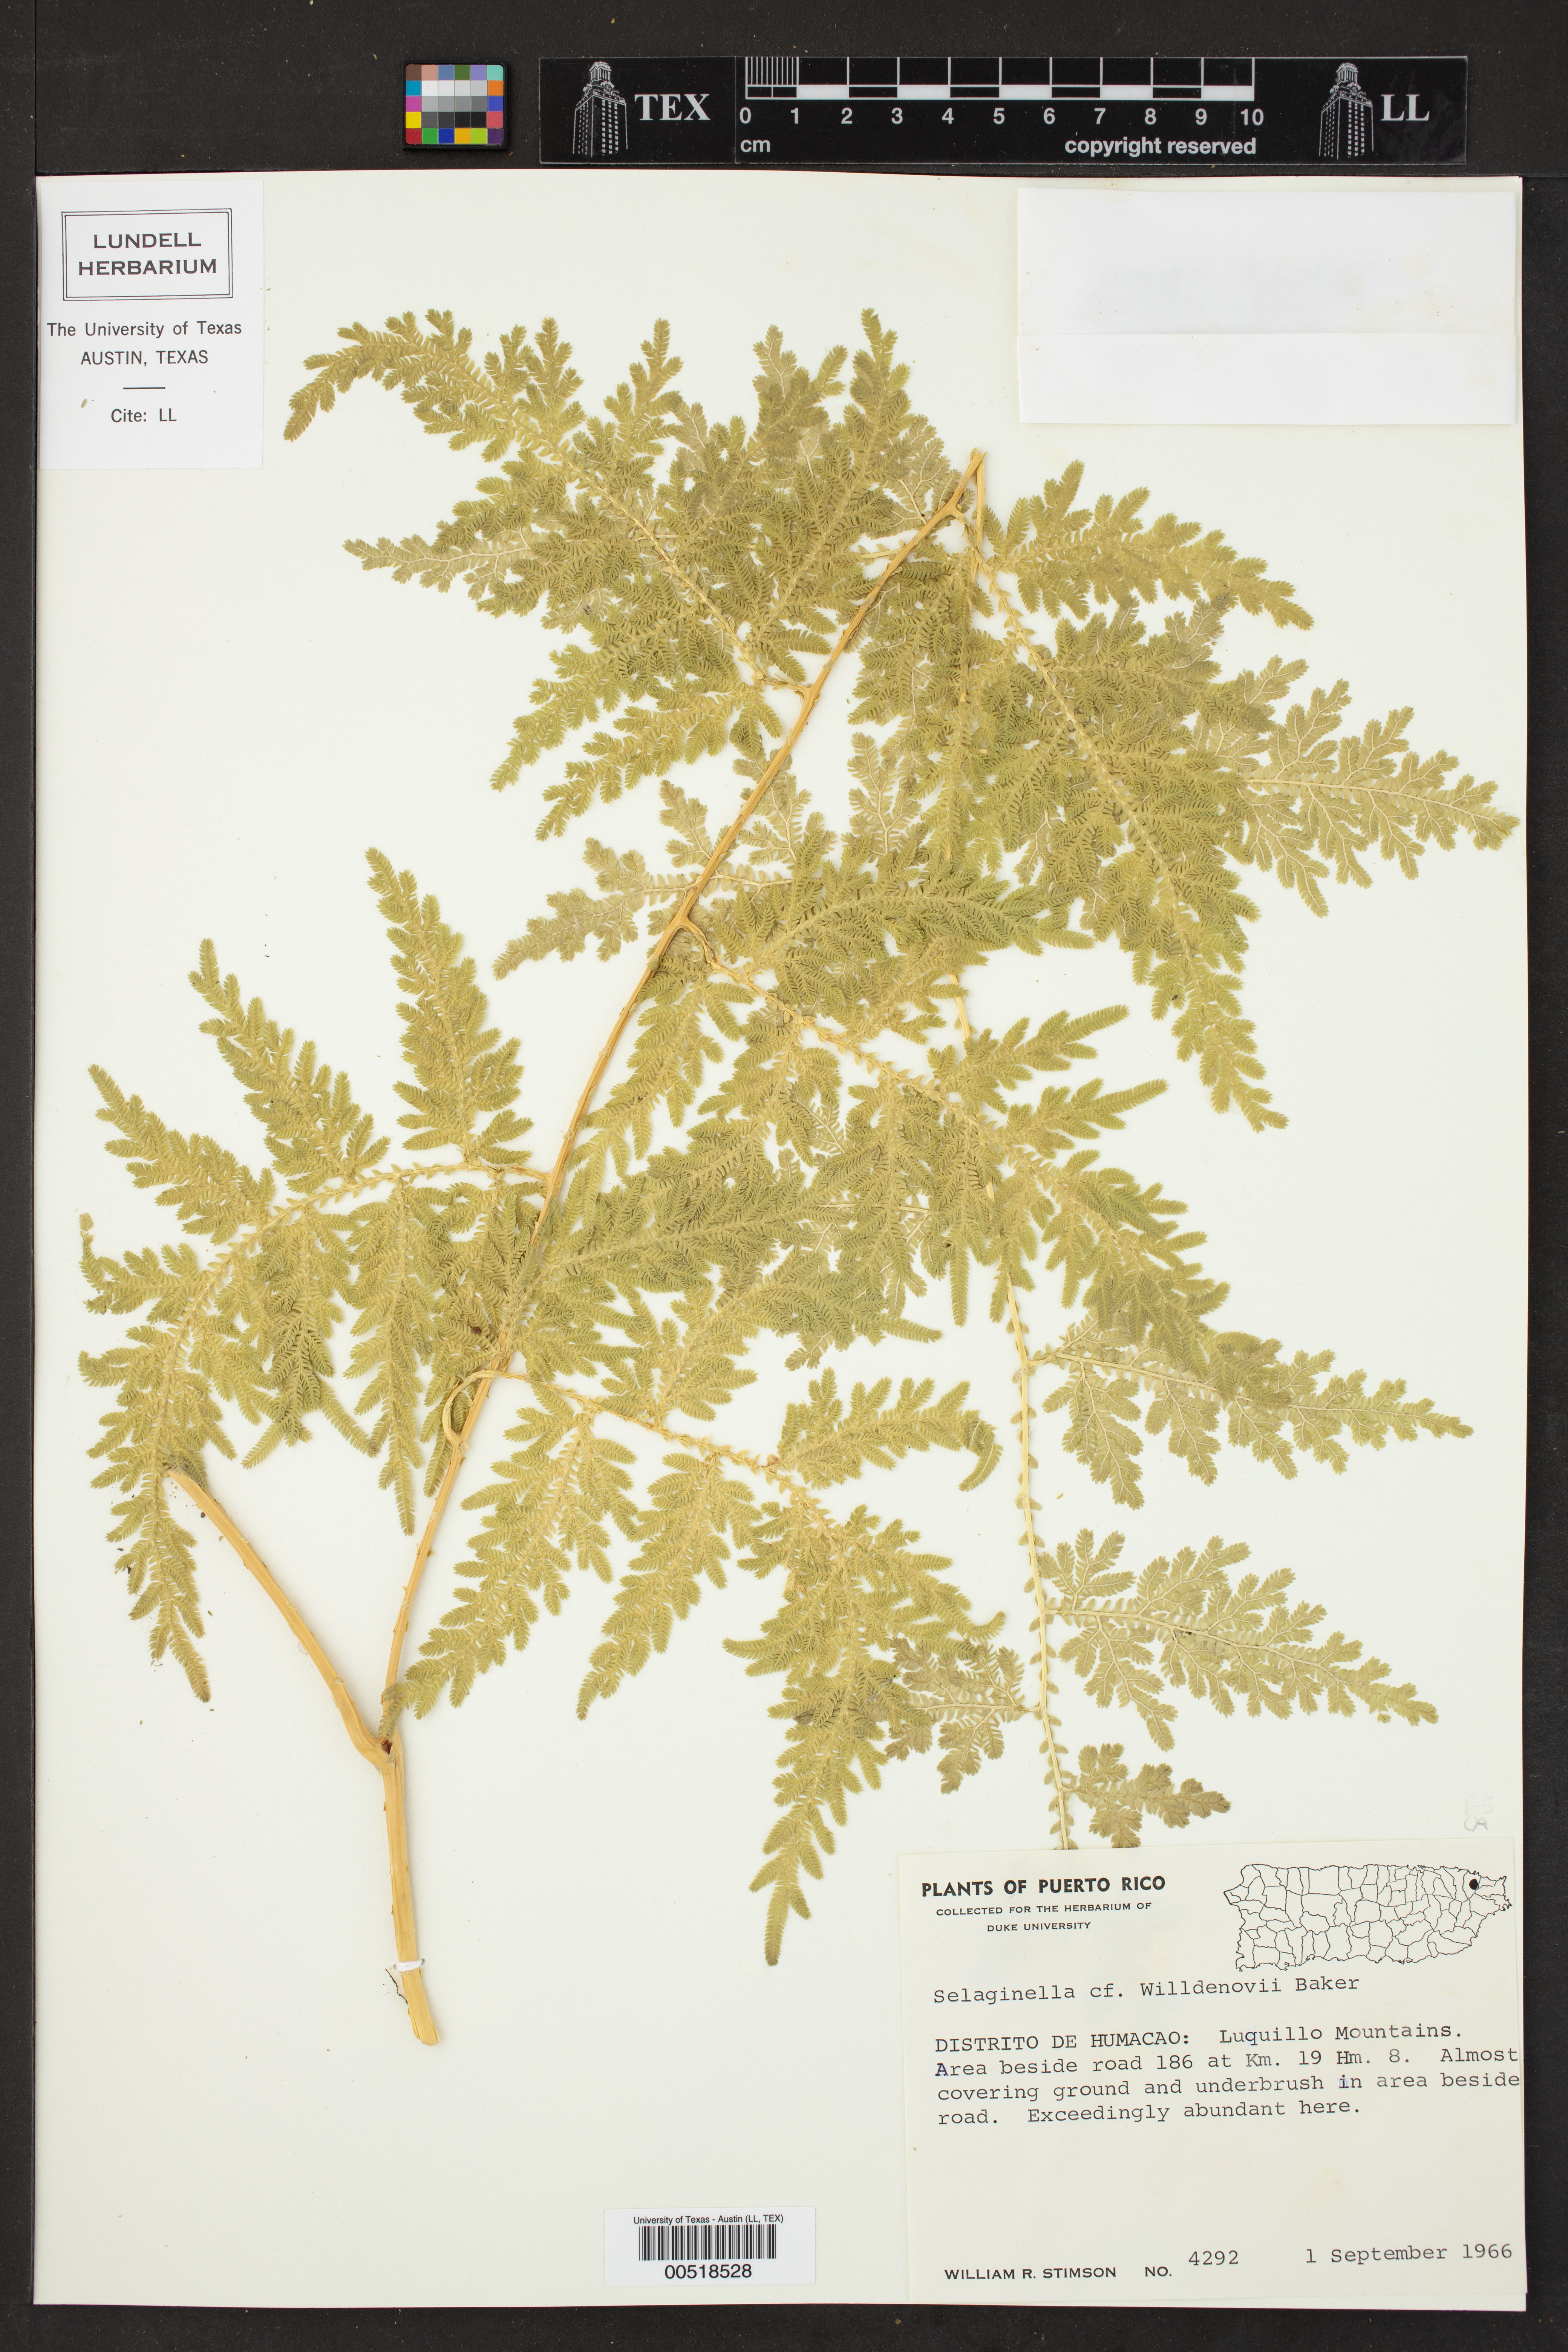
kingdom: Plantae
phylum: Tracheophyta
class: Lycopodiopsida
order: Selaginellales
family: Selaginellaceae
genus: Selaginella
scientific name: Selaginella willdenowii
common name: Willdenow's spikemoss
